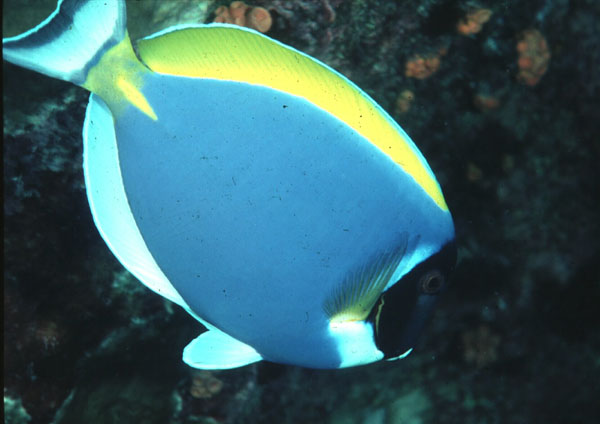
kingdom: Animalia
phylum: Chordata
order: Perciformes
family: Acanthuridae
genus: Acanthurus
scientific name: Acanthurus leucosternon
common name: Blue surgeonfish
